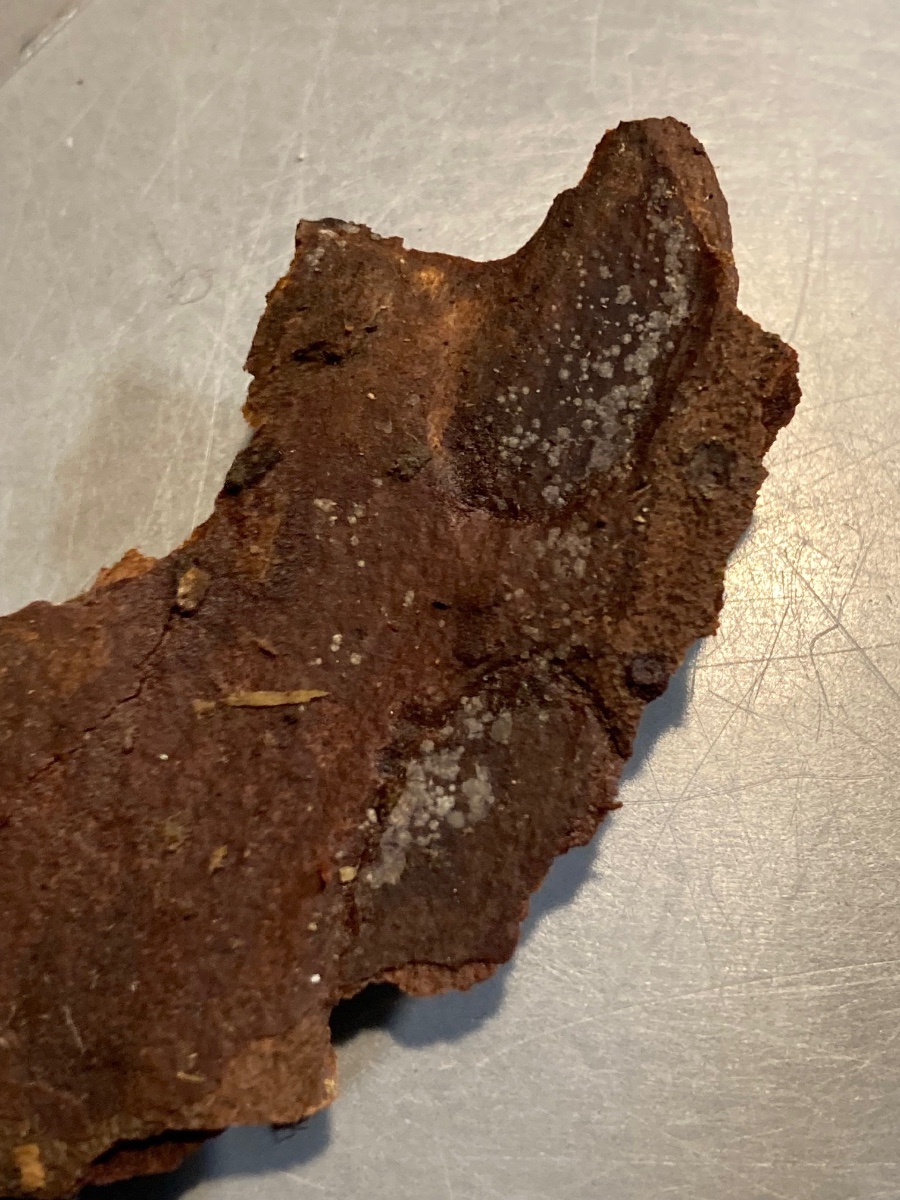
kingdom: Fungi
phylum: Ascomycota
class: Leotiomycetes
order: Helotiales
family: Ascocorticiaceae
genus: Ascocorticium
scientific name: Ascocorticium anomalum
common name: almindelig sækhinde
